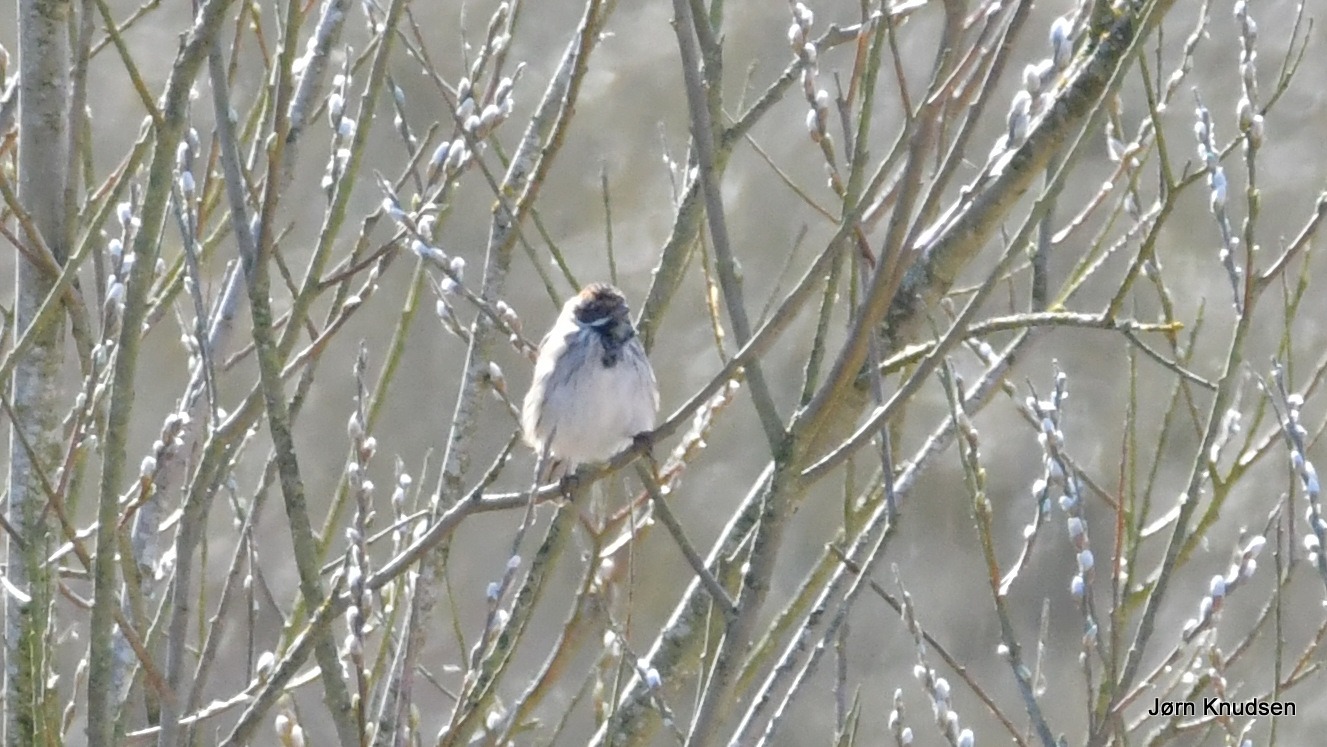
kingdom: Animalia
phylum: Chordata
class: Aves
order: Passeriformes
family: Emberizidae
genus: Emberiza
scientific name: Emberiza schoeniclus
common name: Rørspurv
